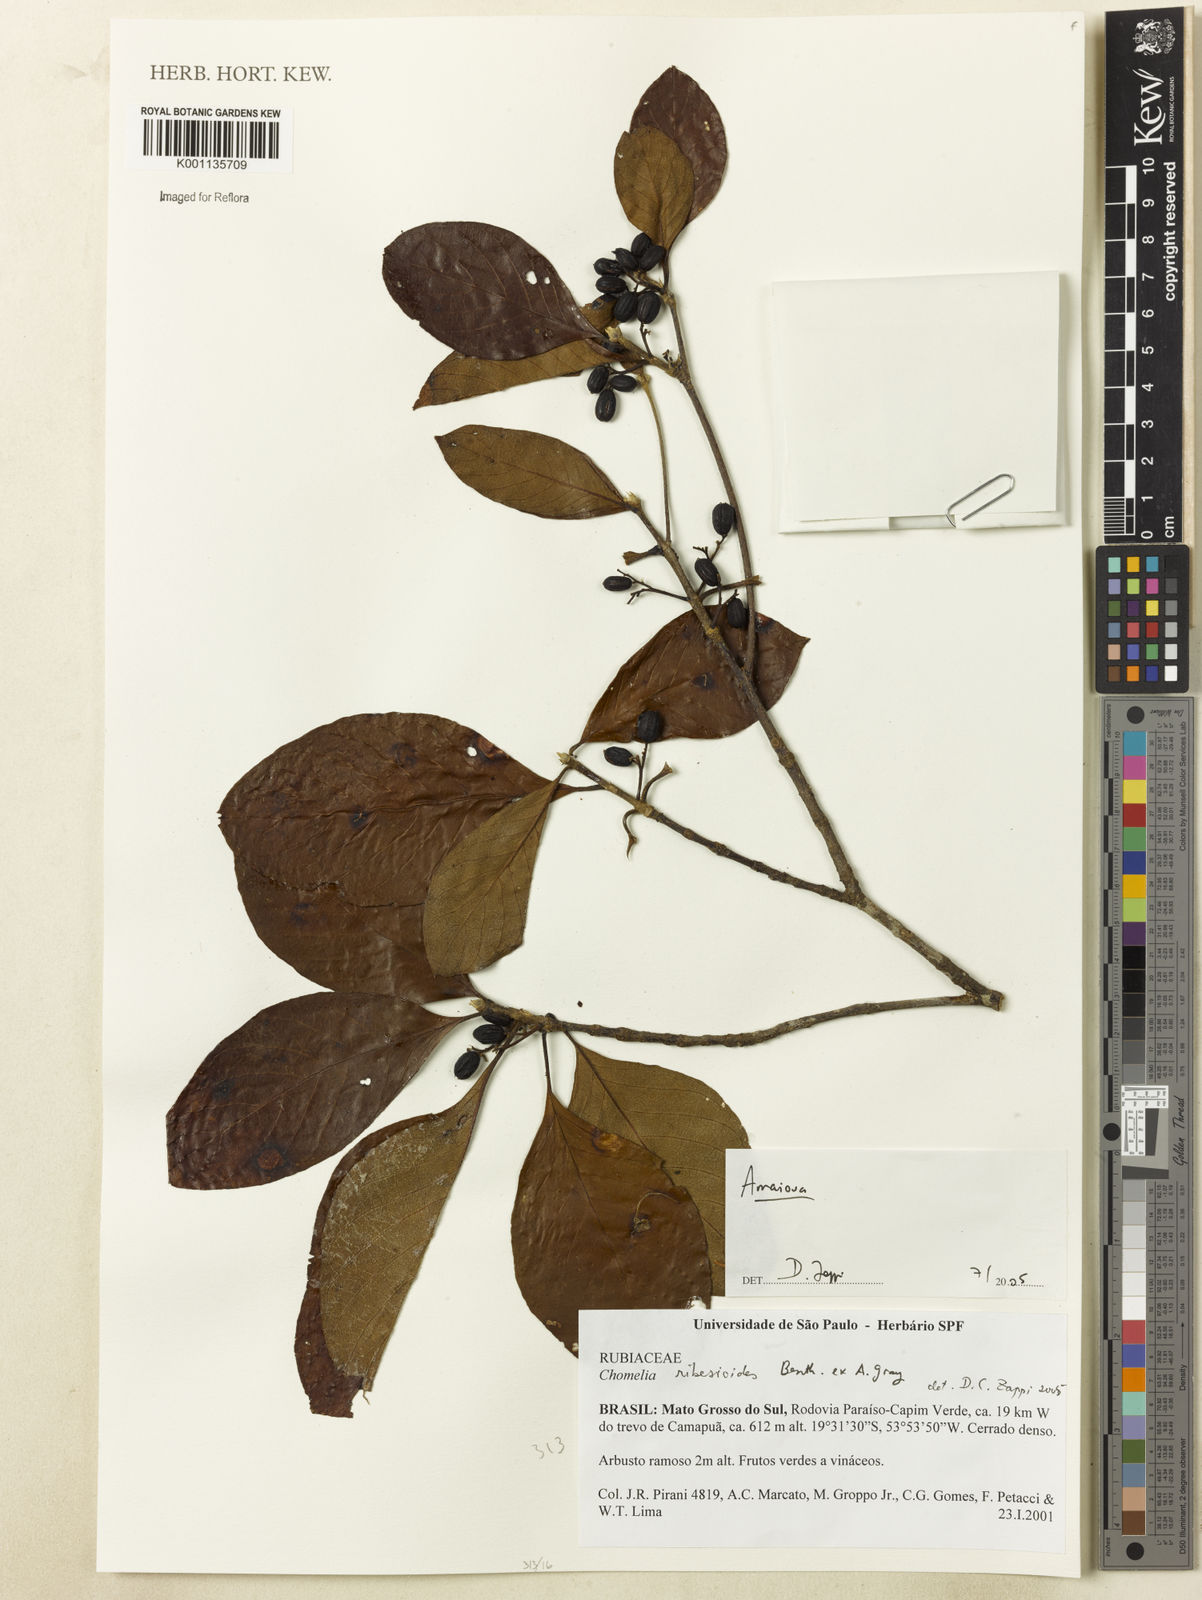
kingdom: Plantae
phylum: Tracheophyta
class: Magnoliopsida
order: Gentianales
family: Rubiaceae
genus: Amaioua
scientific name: Amaioua
